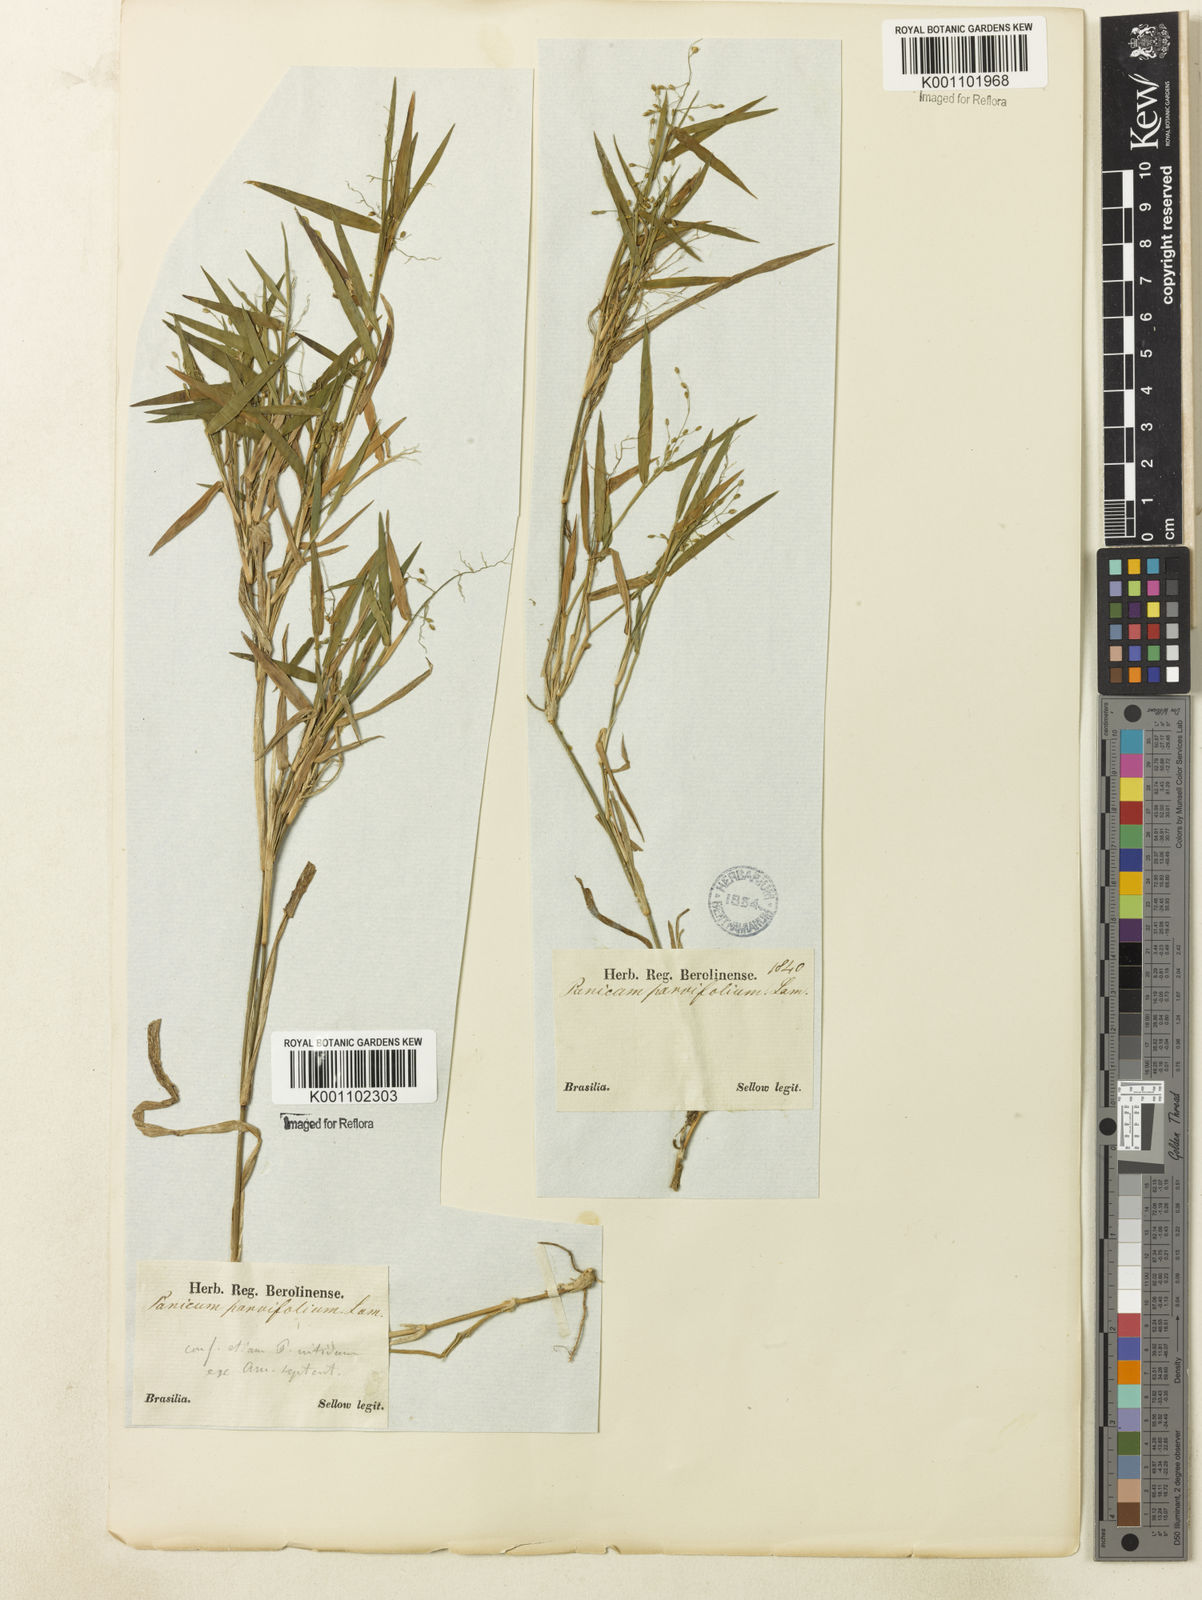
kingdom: Plantae
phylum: Tracheophyta
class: Liliopsida
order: Poales
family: Poaceae
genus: Dichanthelium
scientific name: Dichanthelium sabulorum
